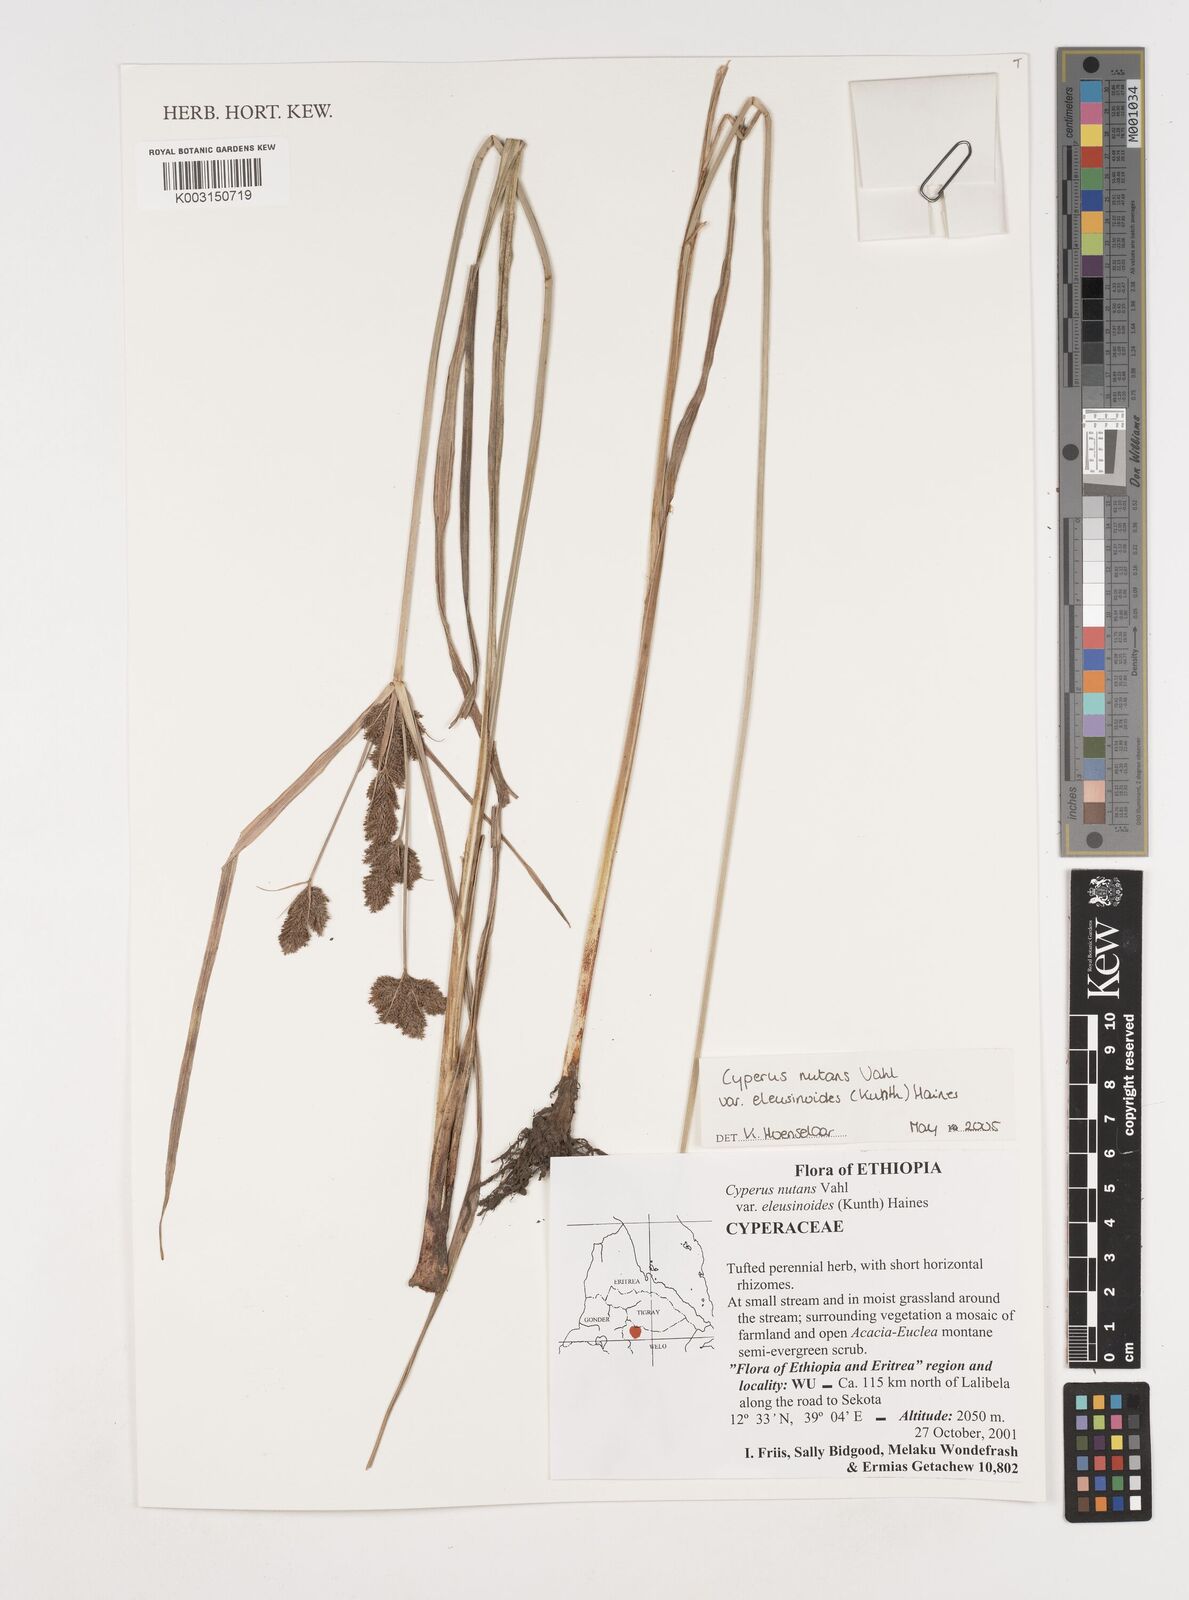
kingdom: Plantae
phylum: Tracheophyta
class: Liliopsida
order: Poales
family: Cyperaceae
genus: Cyperus
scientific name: Cyperus nutans
